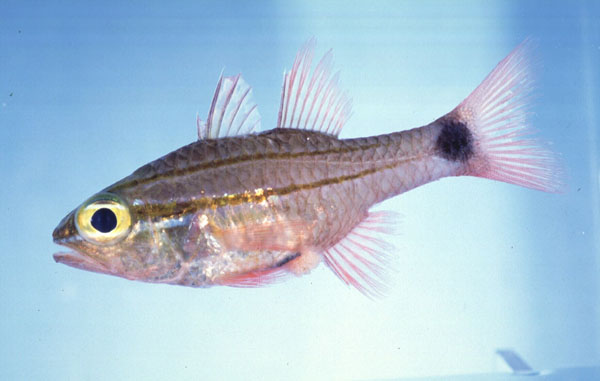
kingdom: Animalia
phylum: Chordata
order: Perciformes
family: Apogonidae
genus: Ostorhinchus
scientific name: Ostorhinchus fukuii
